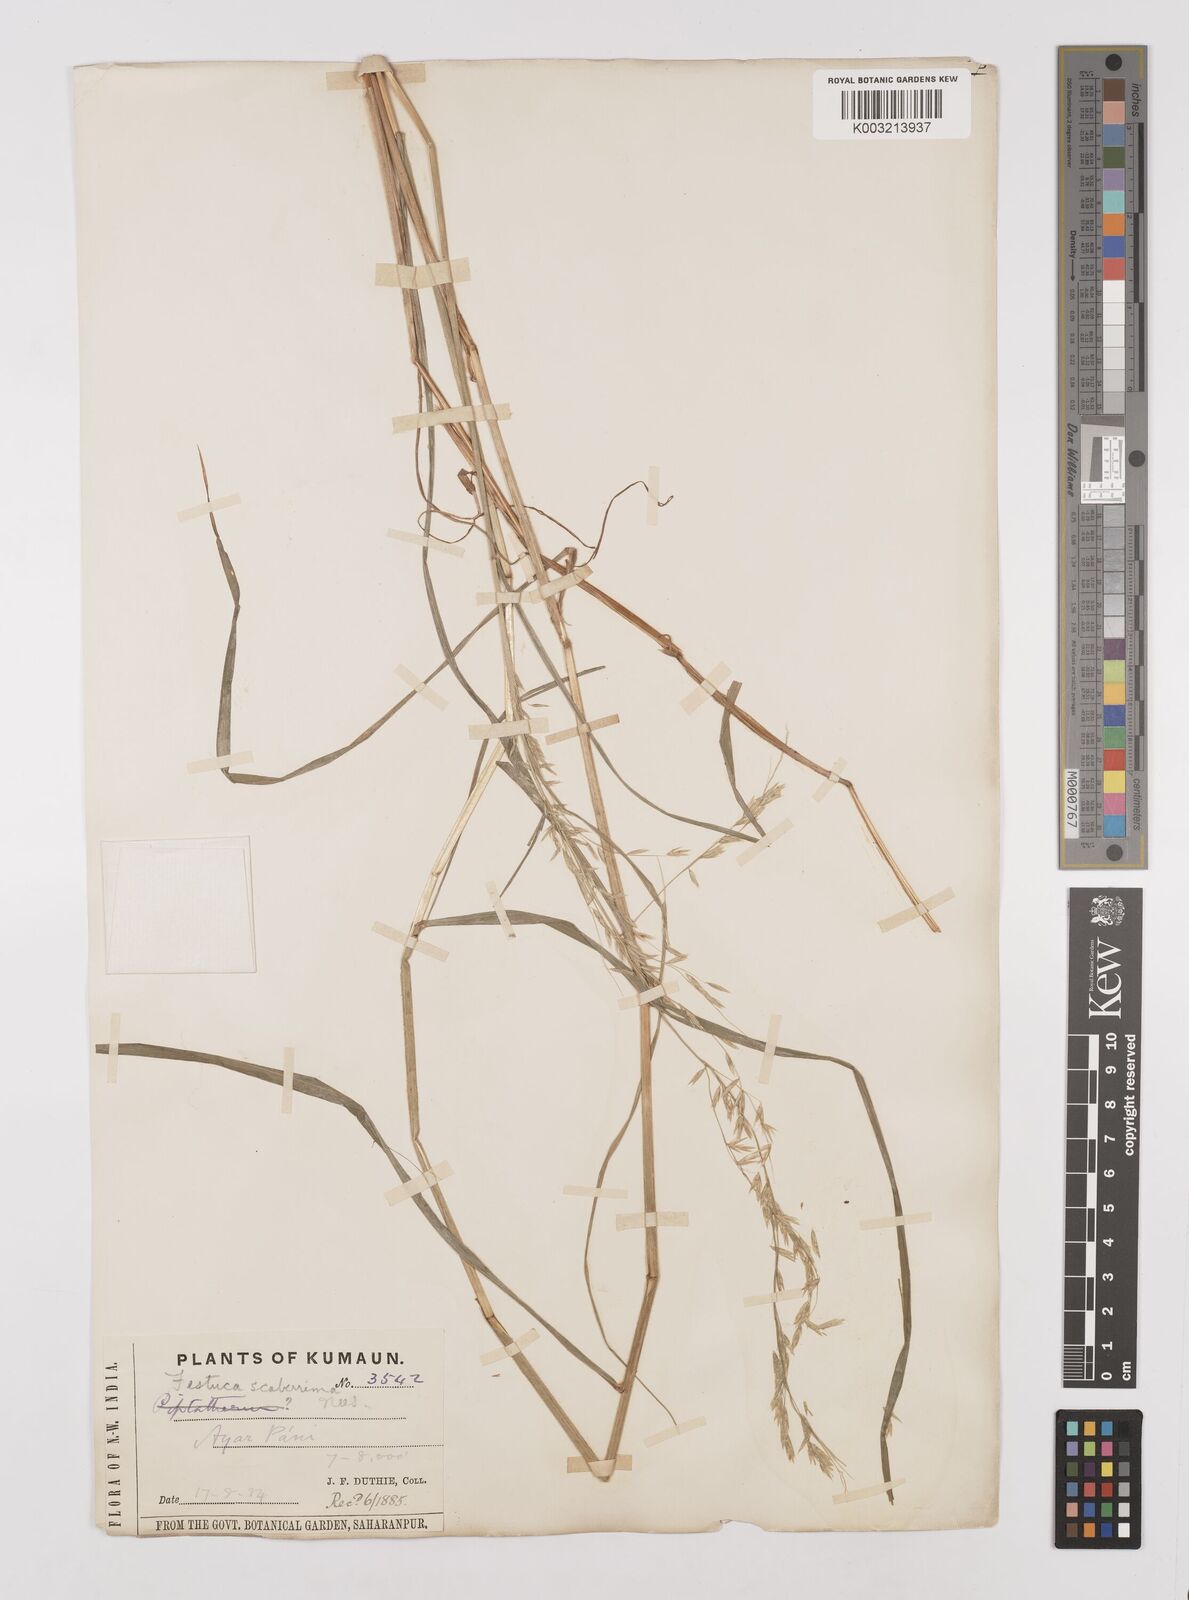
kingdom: Plantae
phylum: Tracheophyta
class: Liliopsida
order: Poales
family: Poaceae
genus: Melica
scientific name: Melica scaberrima
